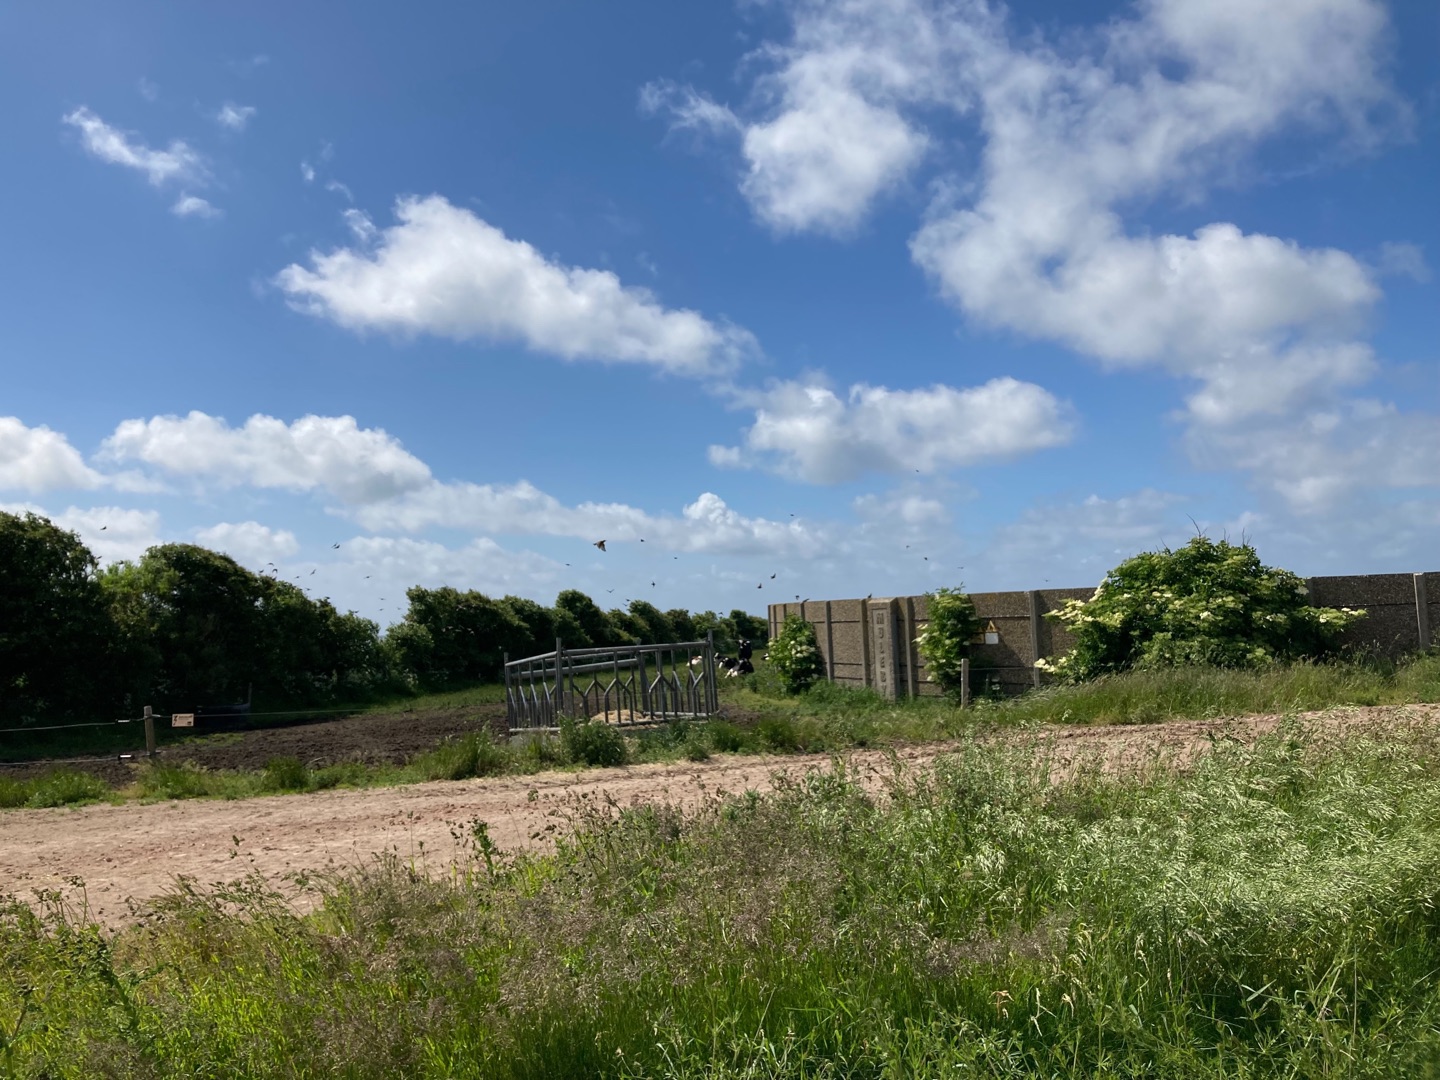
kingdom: Animalia
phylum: Chordata
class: Aves
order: Passeriformes
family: Sturnidae
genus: Sturnus
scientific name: Sturnus vulgaris
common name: Stær
